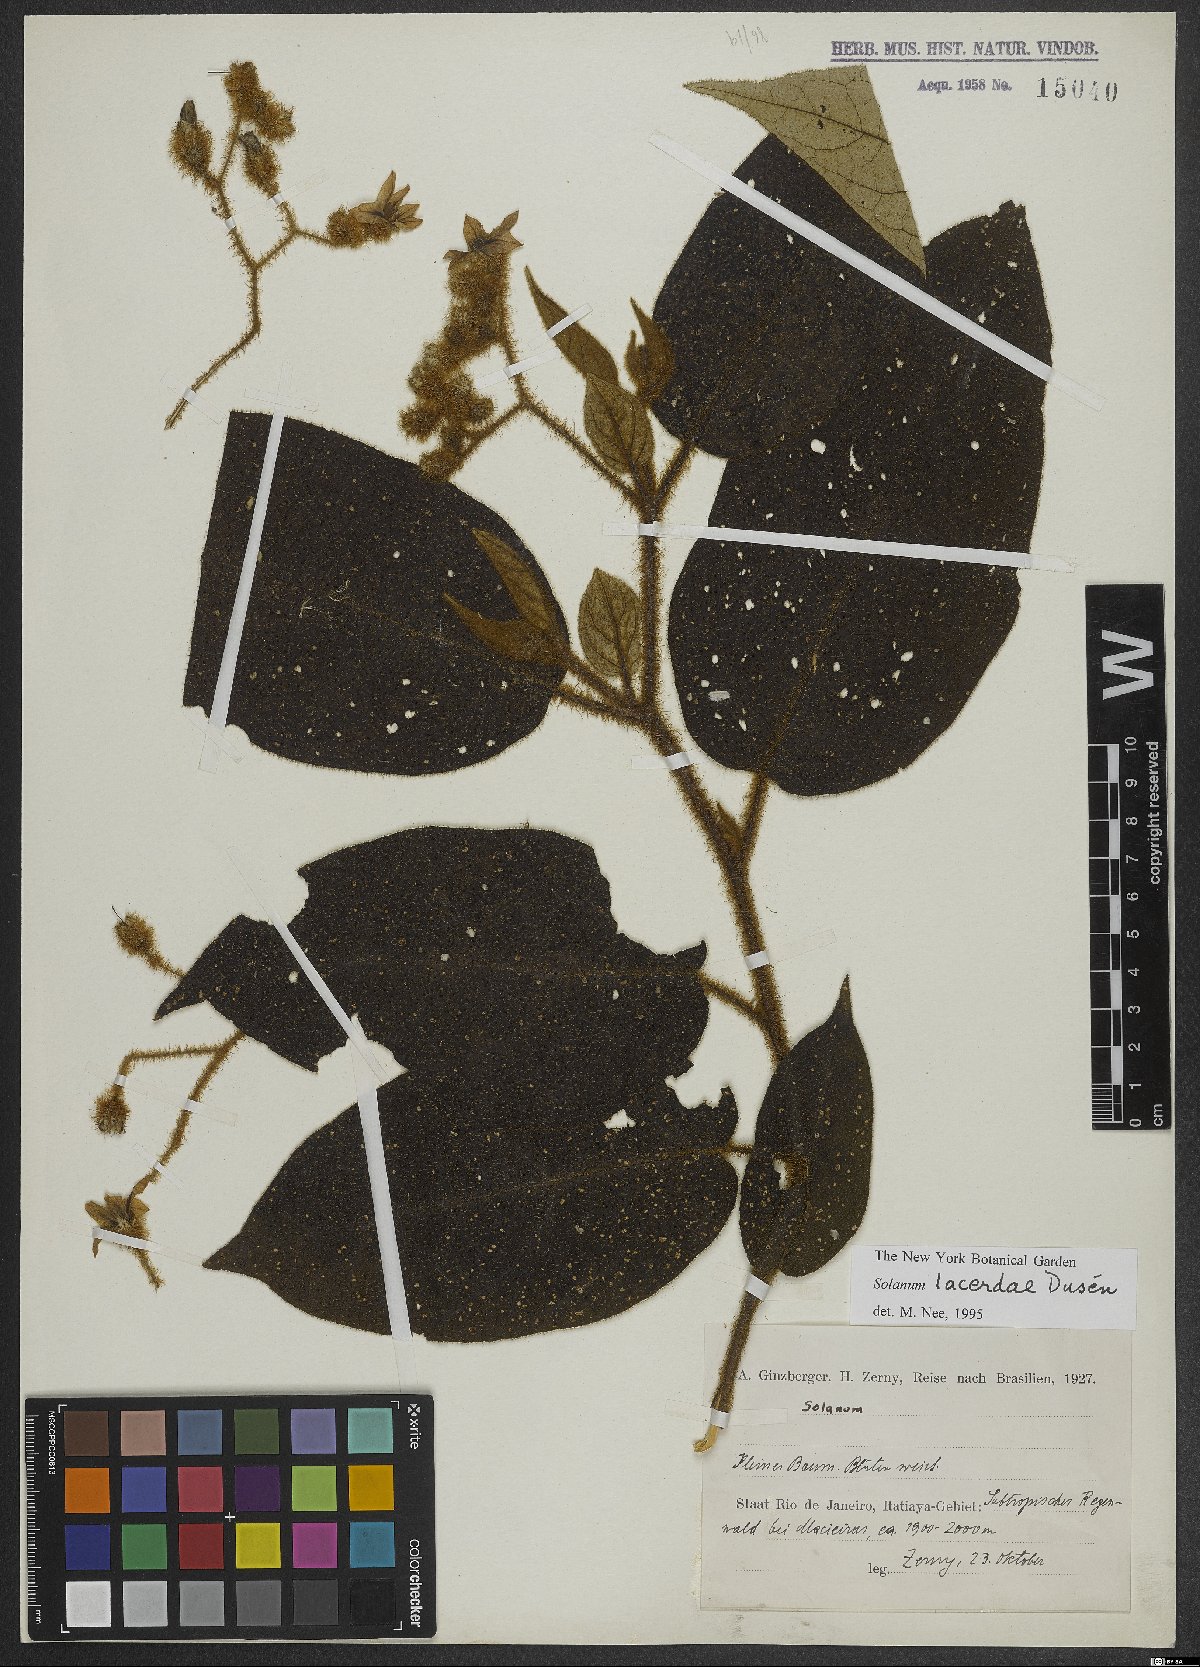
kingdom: Plantae
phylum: Tracheophyta
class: Magnoliopsida
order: Solanales
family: Solanaceae
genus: Solanum
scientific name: Solanum lacerdae
